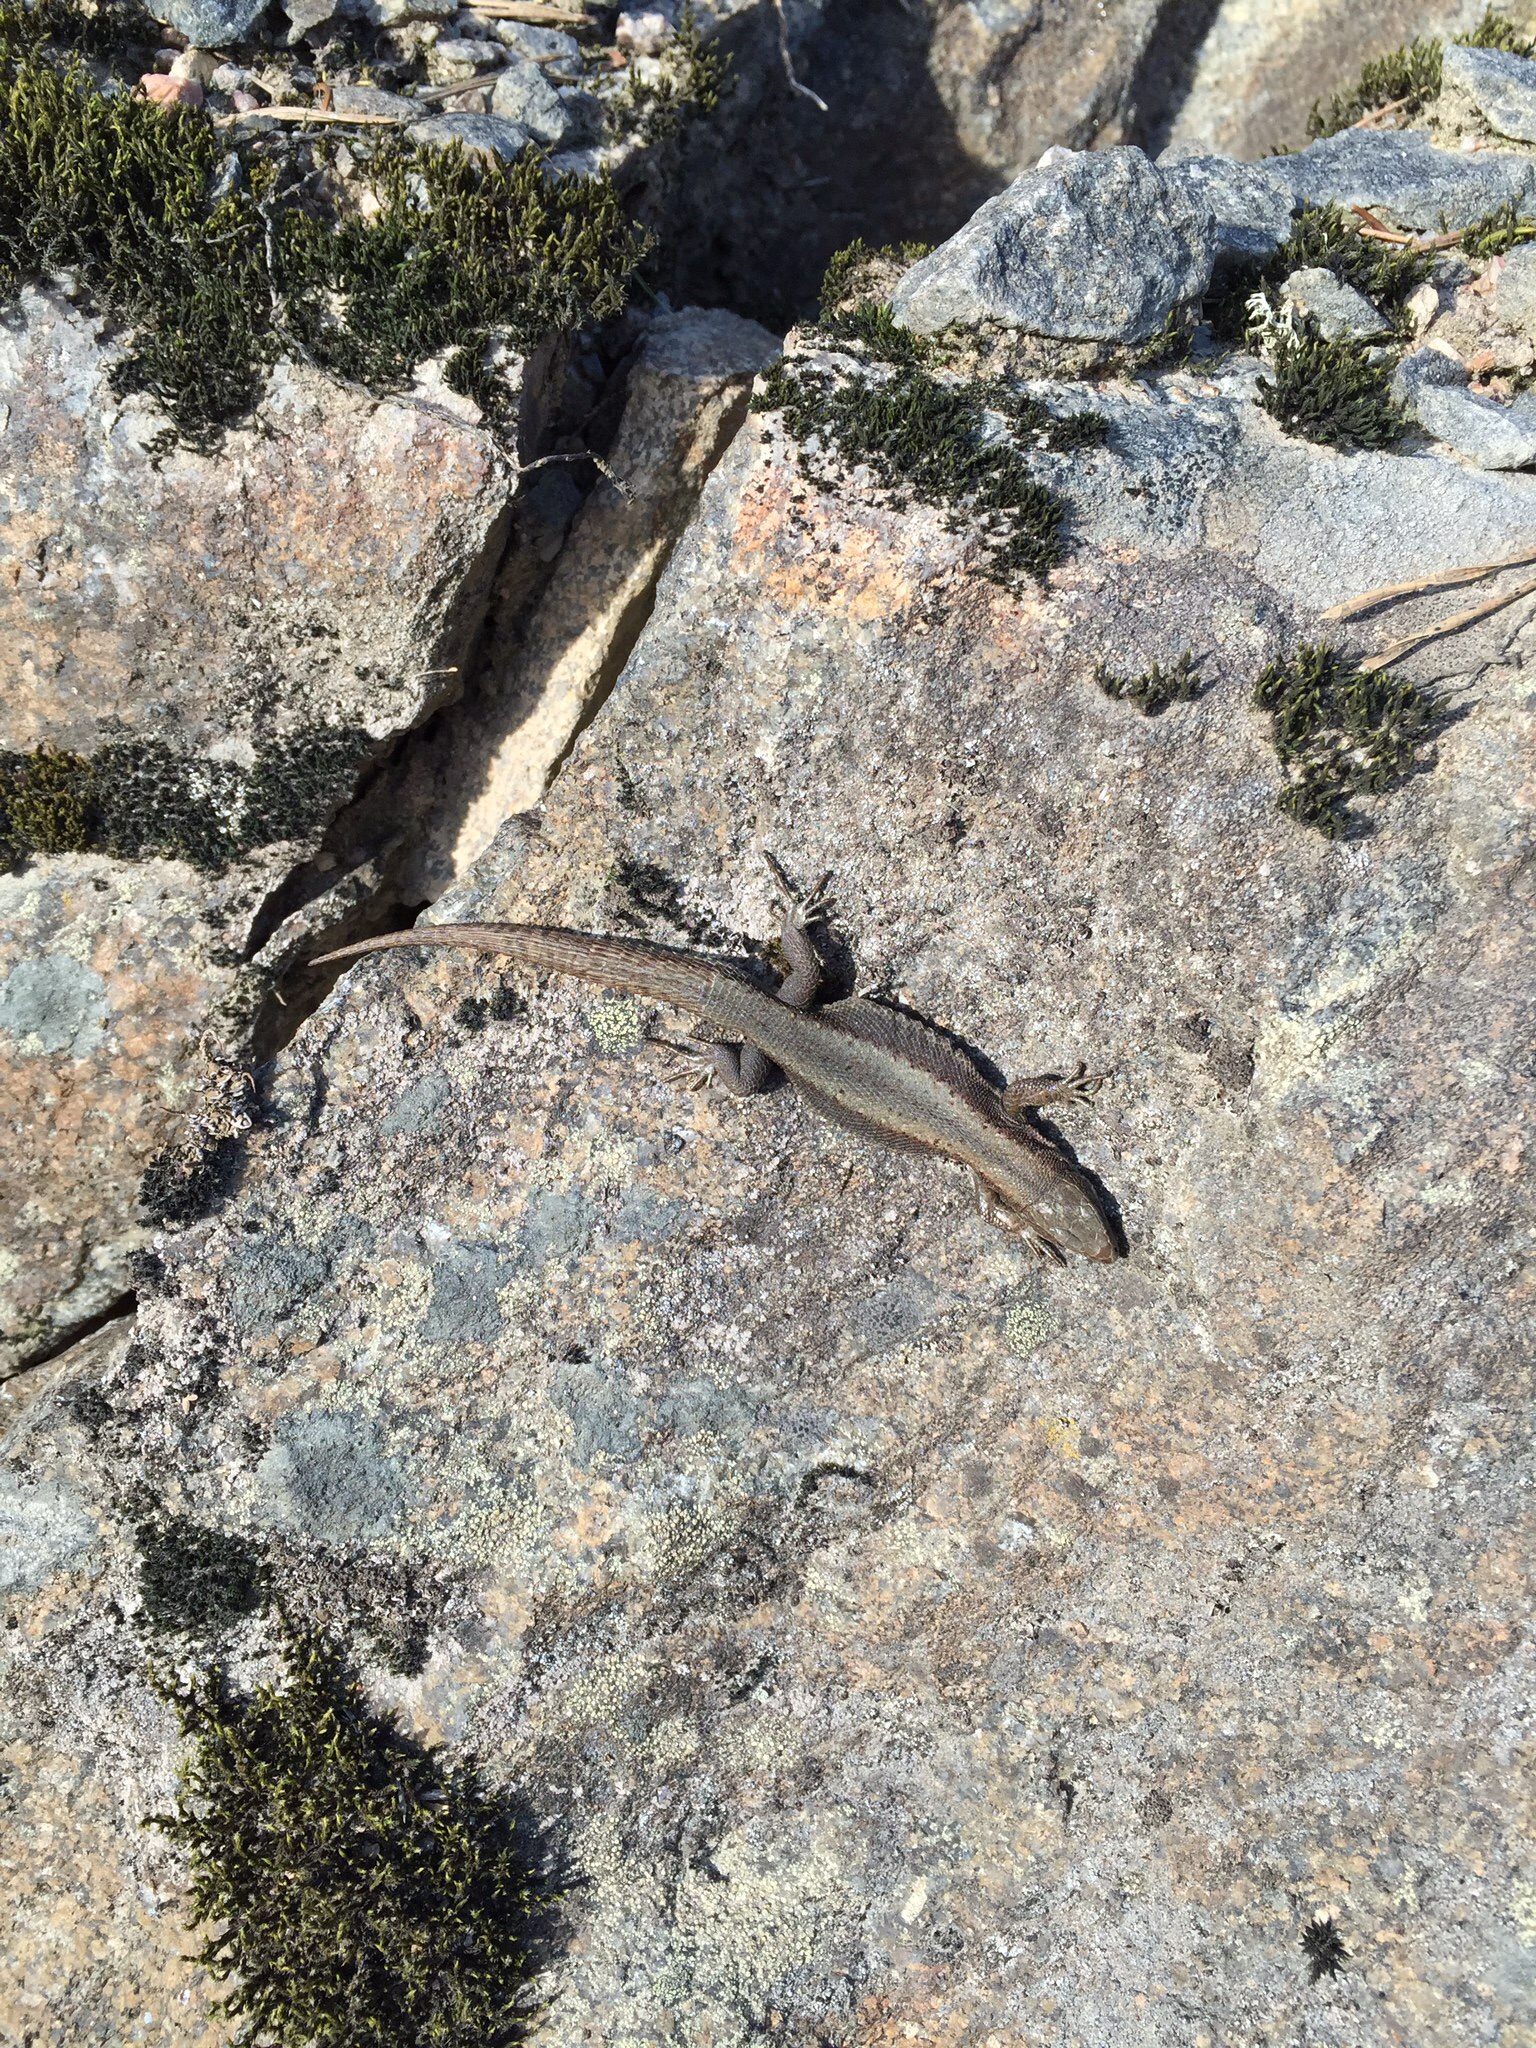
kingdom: Animalia
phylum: Chordata
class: Squamata
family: Lacertidae
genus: Zootoca
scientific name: Zootoca vivipara
